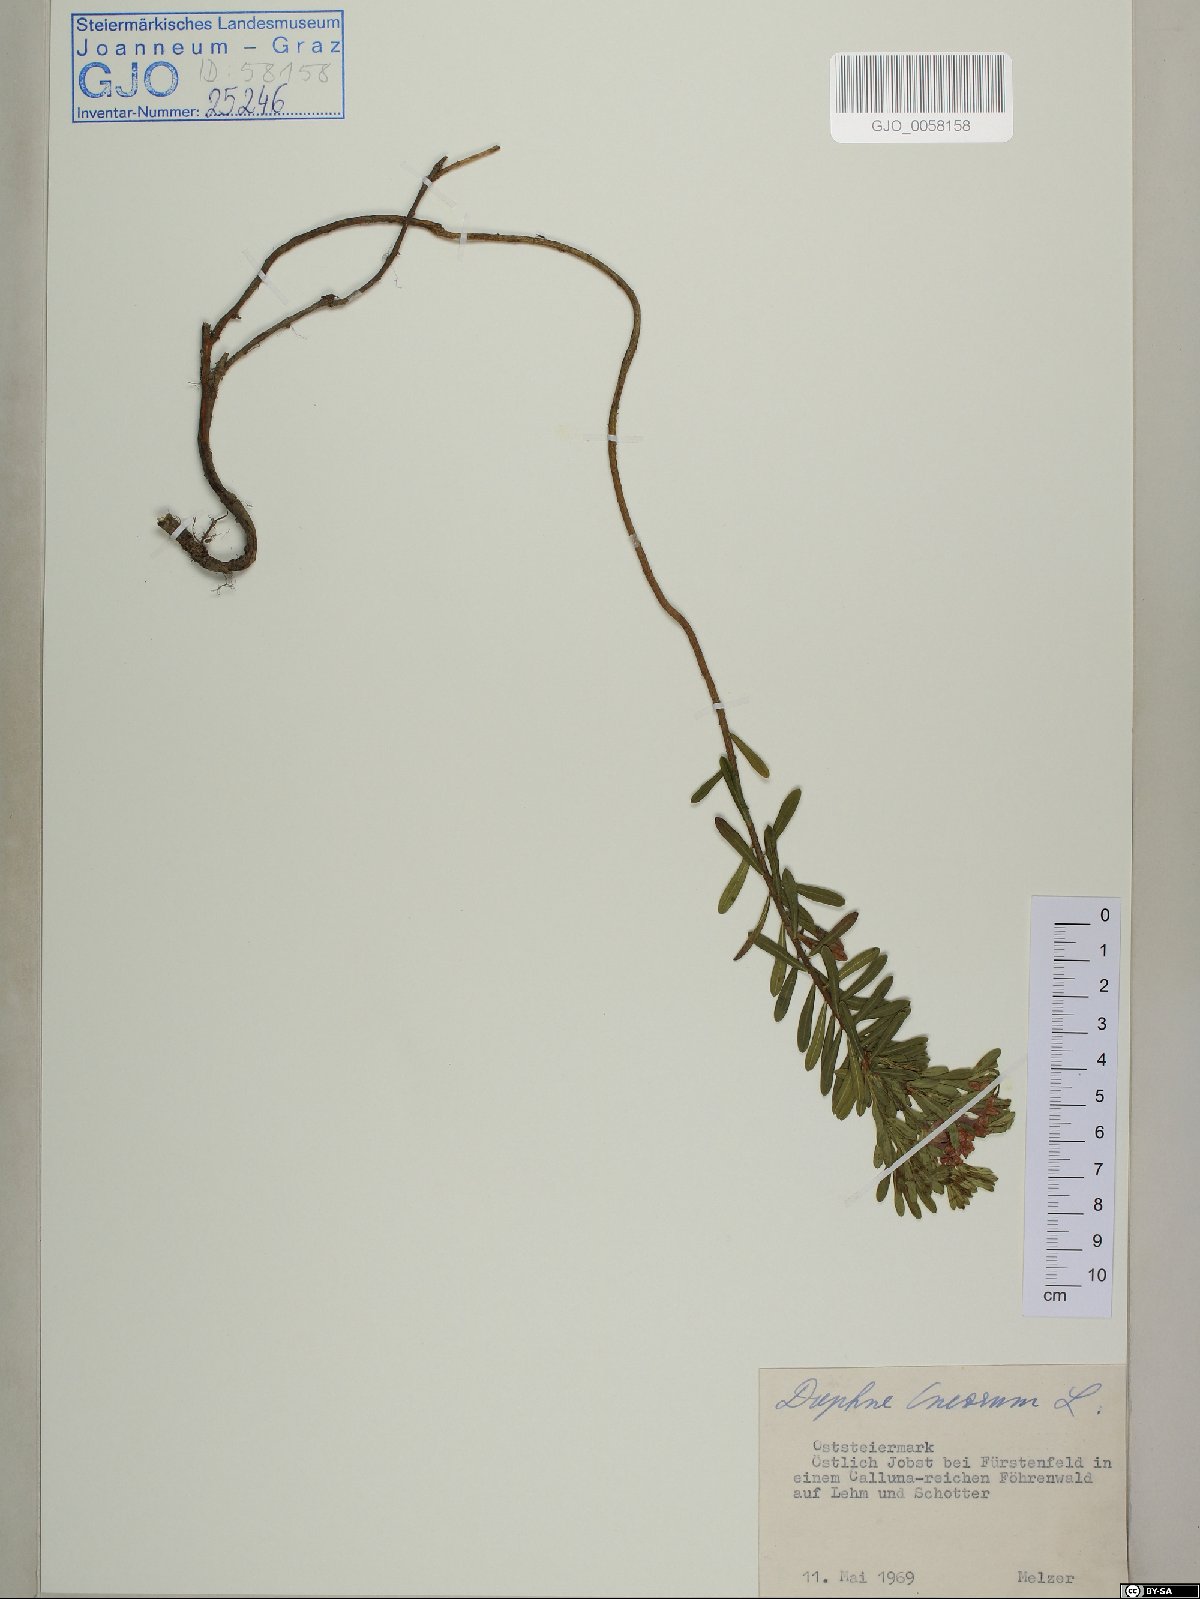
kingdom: Plantae
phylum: Tracheophyta
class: Magnoliopsida
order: Malvales
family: Thymelaeaceae
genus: Daphne
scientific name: Daphne cneorum
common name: Garland-flower
